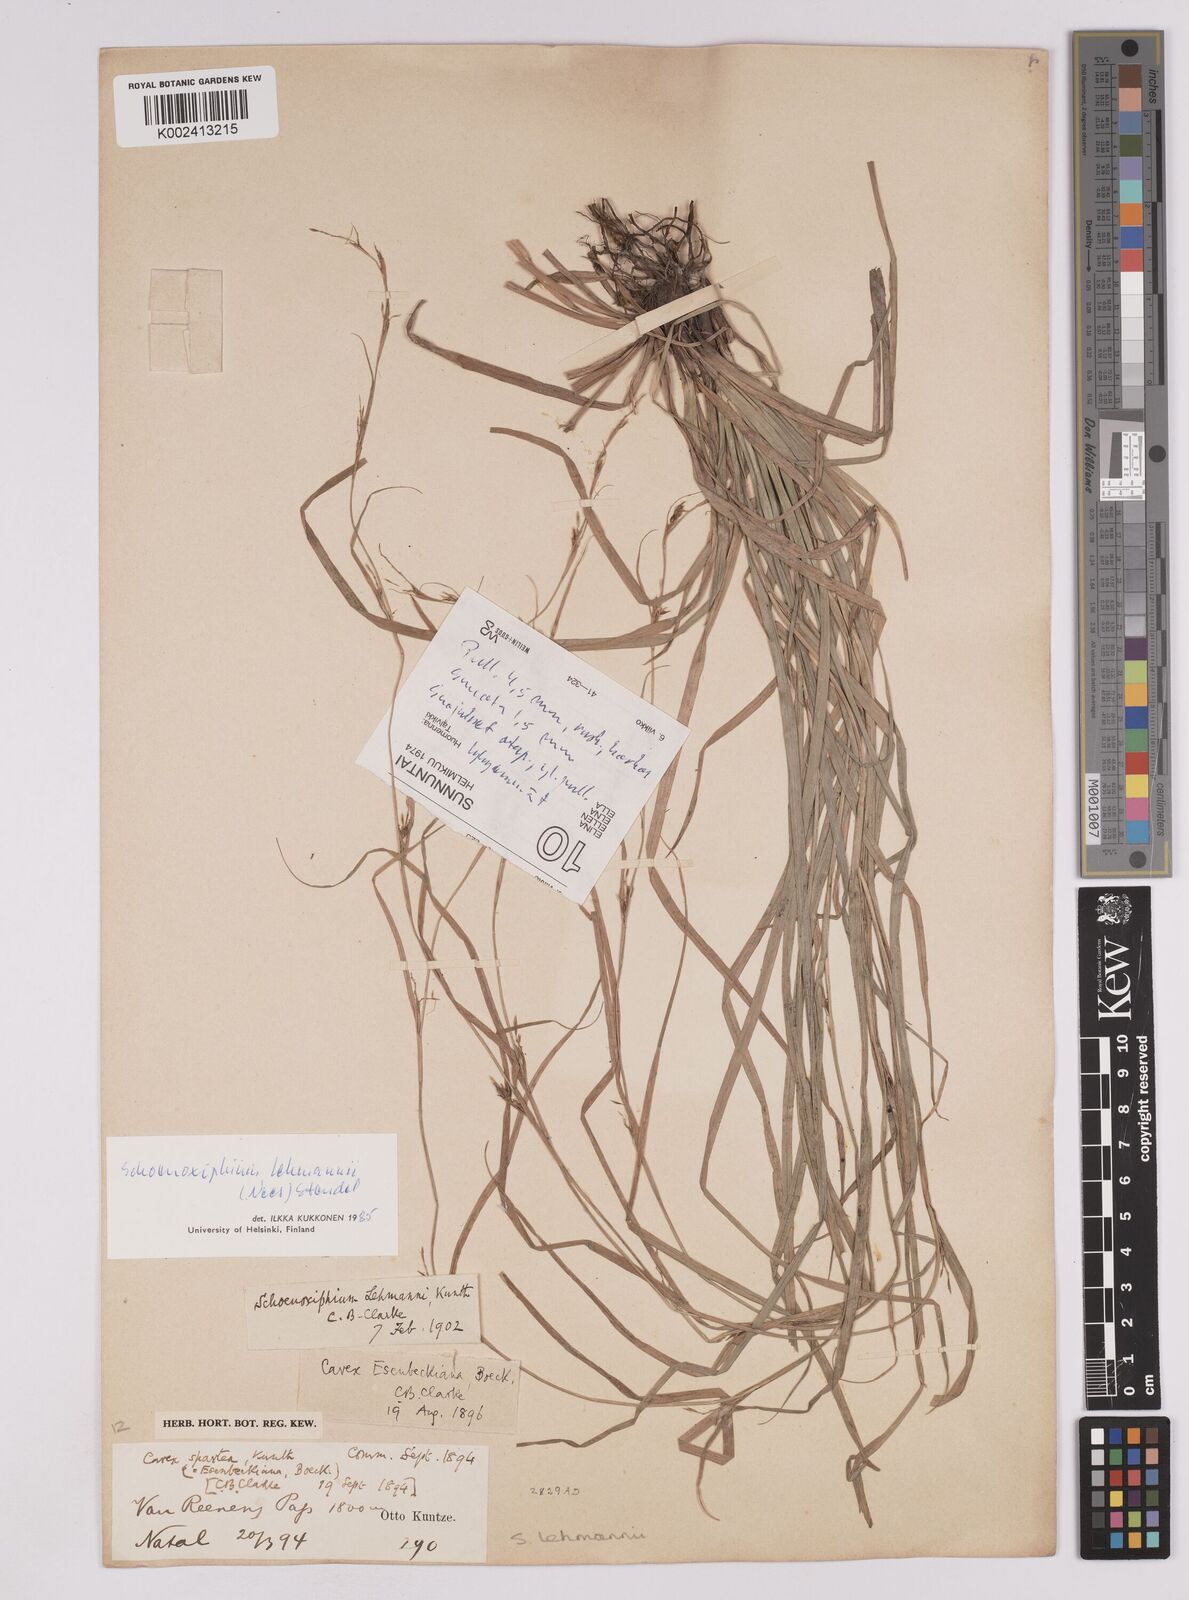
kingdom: Plantae
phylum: Tracheophyta
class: Liliopsida
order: Poales
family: Cyperaceae
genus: Carex
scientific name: Carex uhligii
